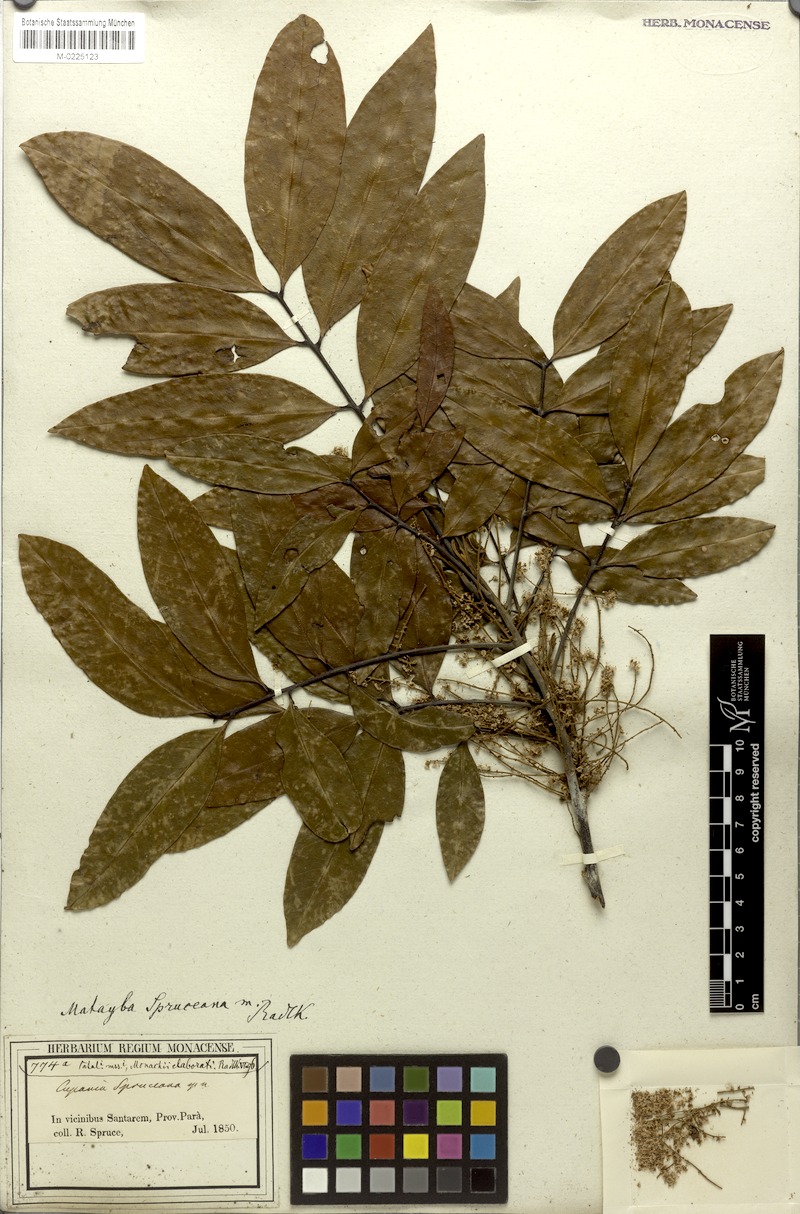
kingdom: Plantae
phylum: Tracheophyta
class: Magnoliopsida
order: Sapindales
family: Sapindaceae
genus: Matayba
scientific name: Matayba spruceana
